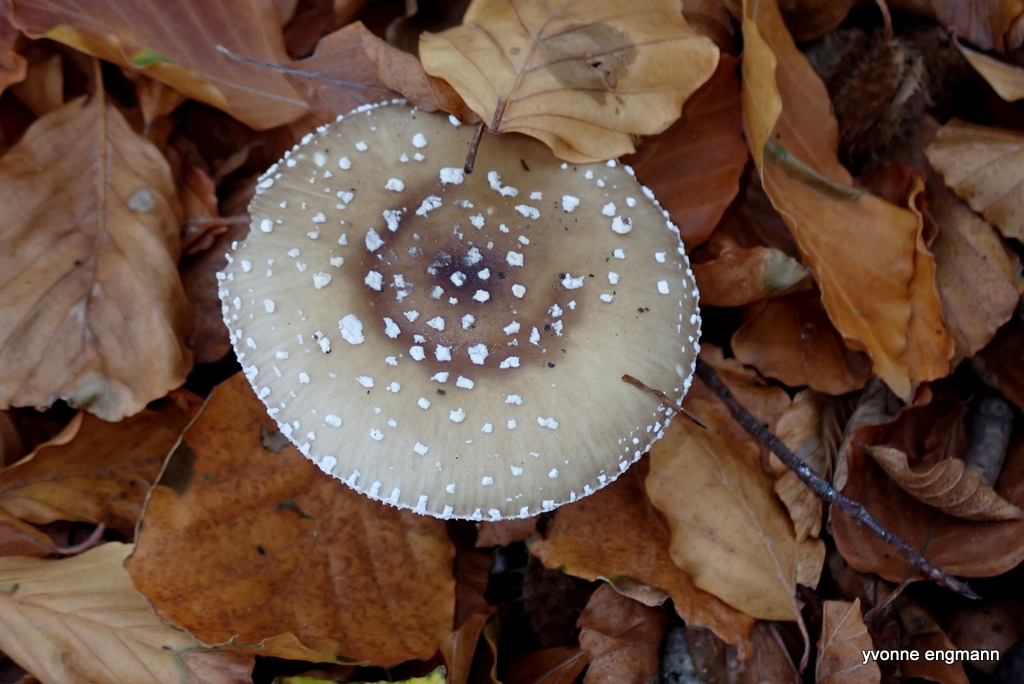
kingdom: Fungi
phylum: Basidiomycota
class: Agaricomycetes
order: Agaricales
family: Amanitaceae
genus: Amanita
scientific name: Amanita pantherina
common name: panter-fluesvamp
